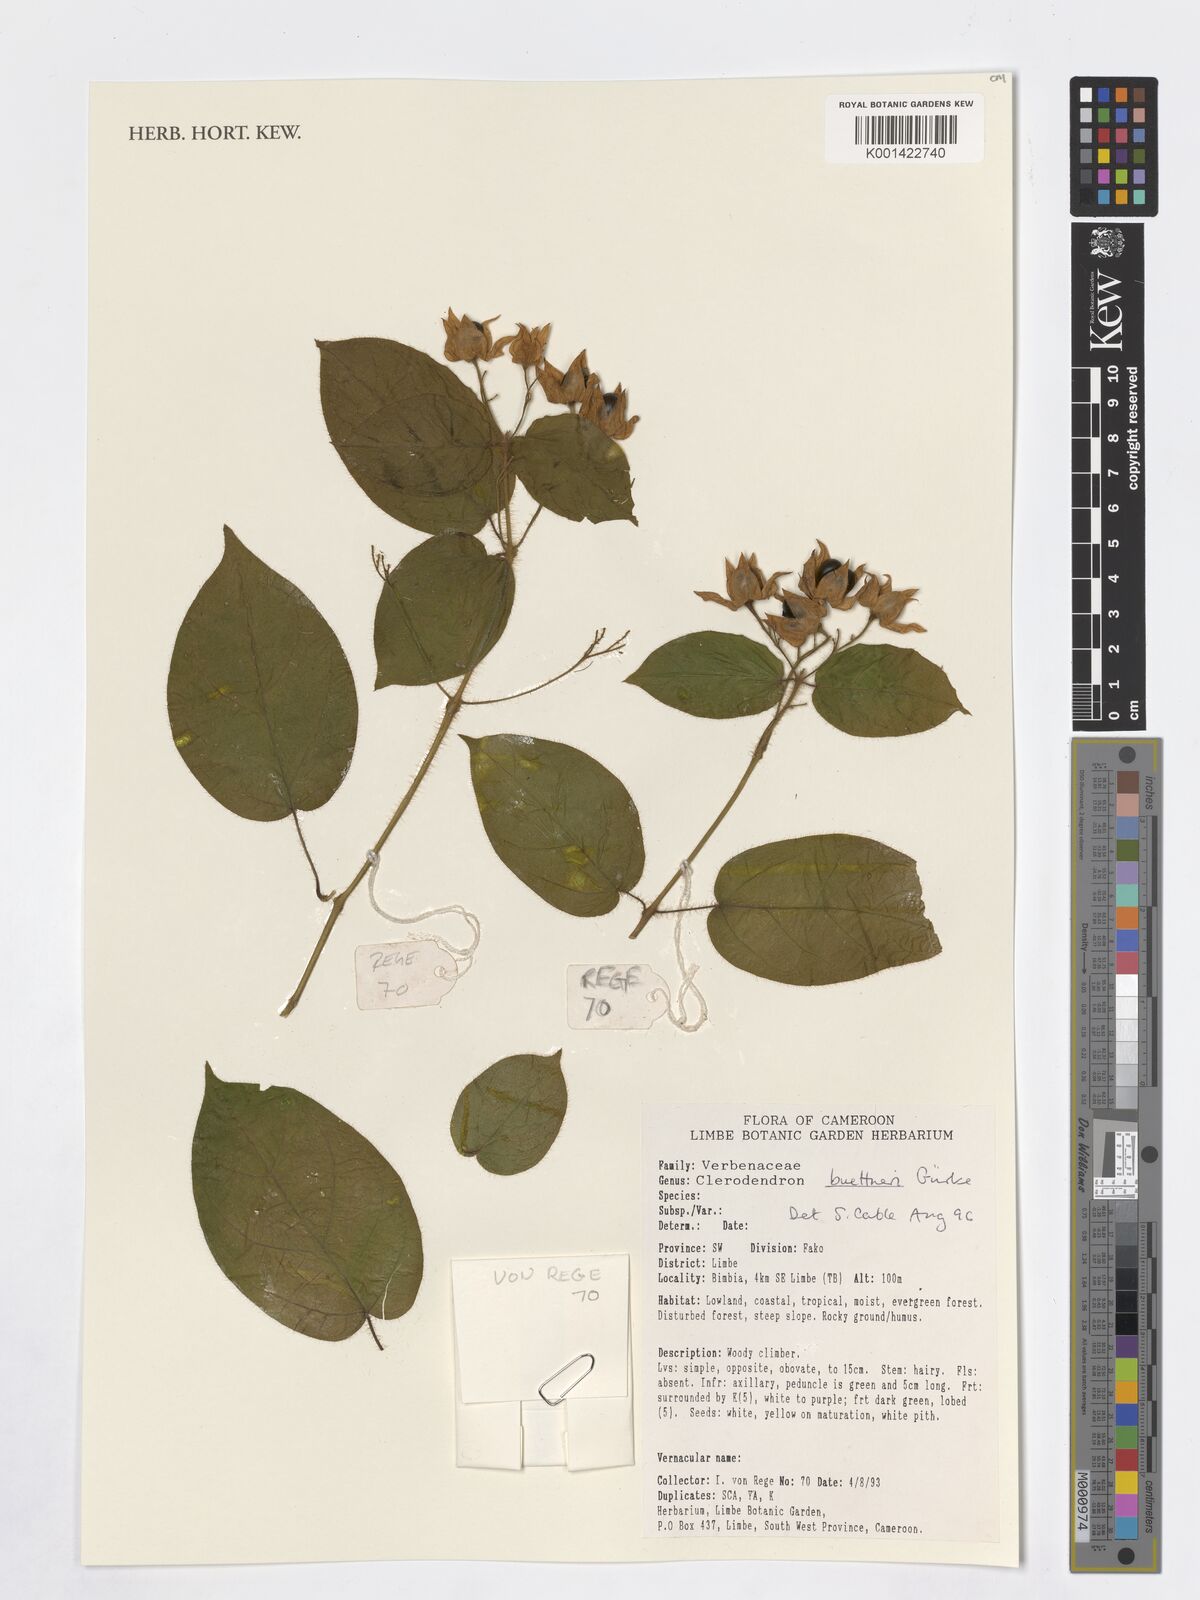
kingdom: Plantae
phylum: Tracheophyta
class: Magnoliopsida
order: Lamiales
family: Verbenaceae
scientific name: Verbenaceae
